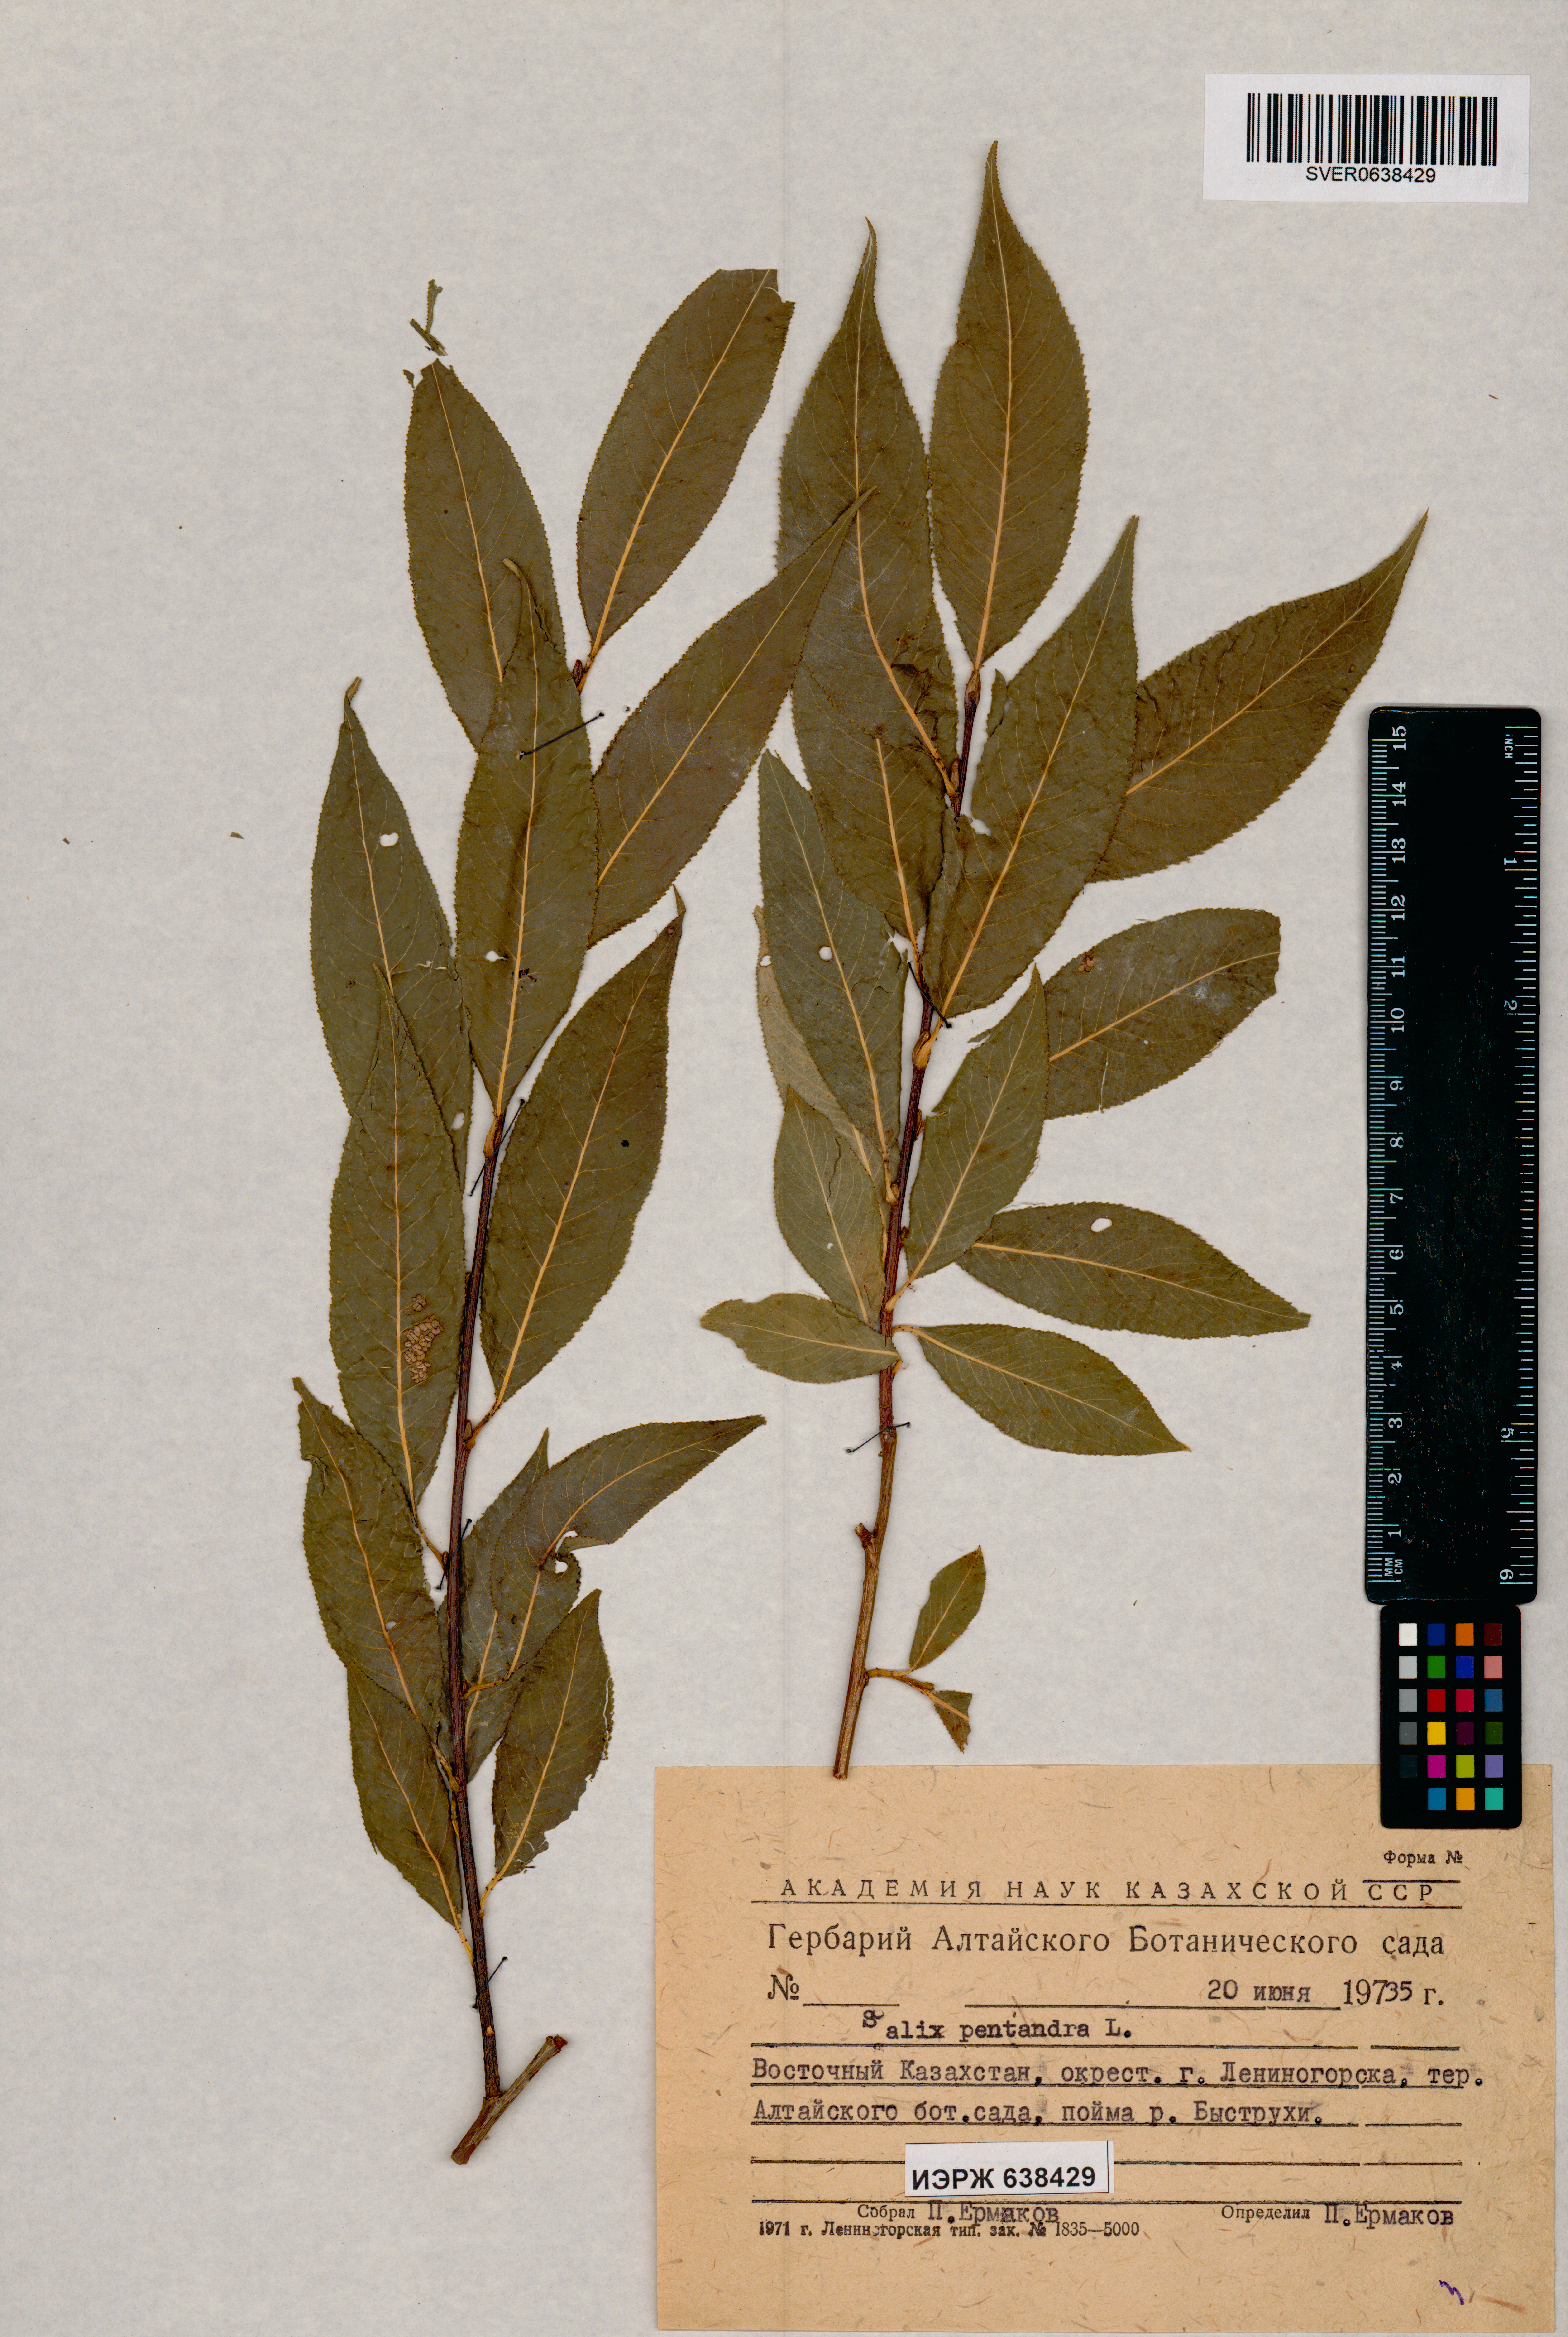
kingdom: Plantae
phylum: Tracheophyta
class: Magnoliopsida
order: Malpighiales
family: Salicaceae
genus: Salix
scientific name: Salix pentandra
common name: Bay willow
